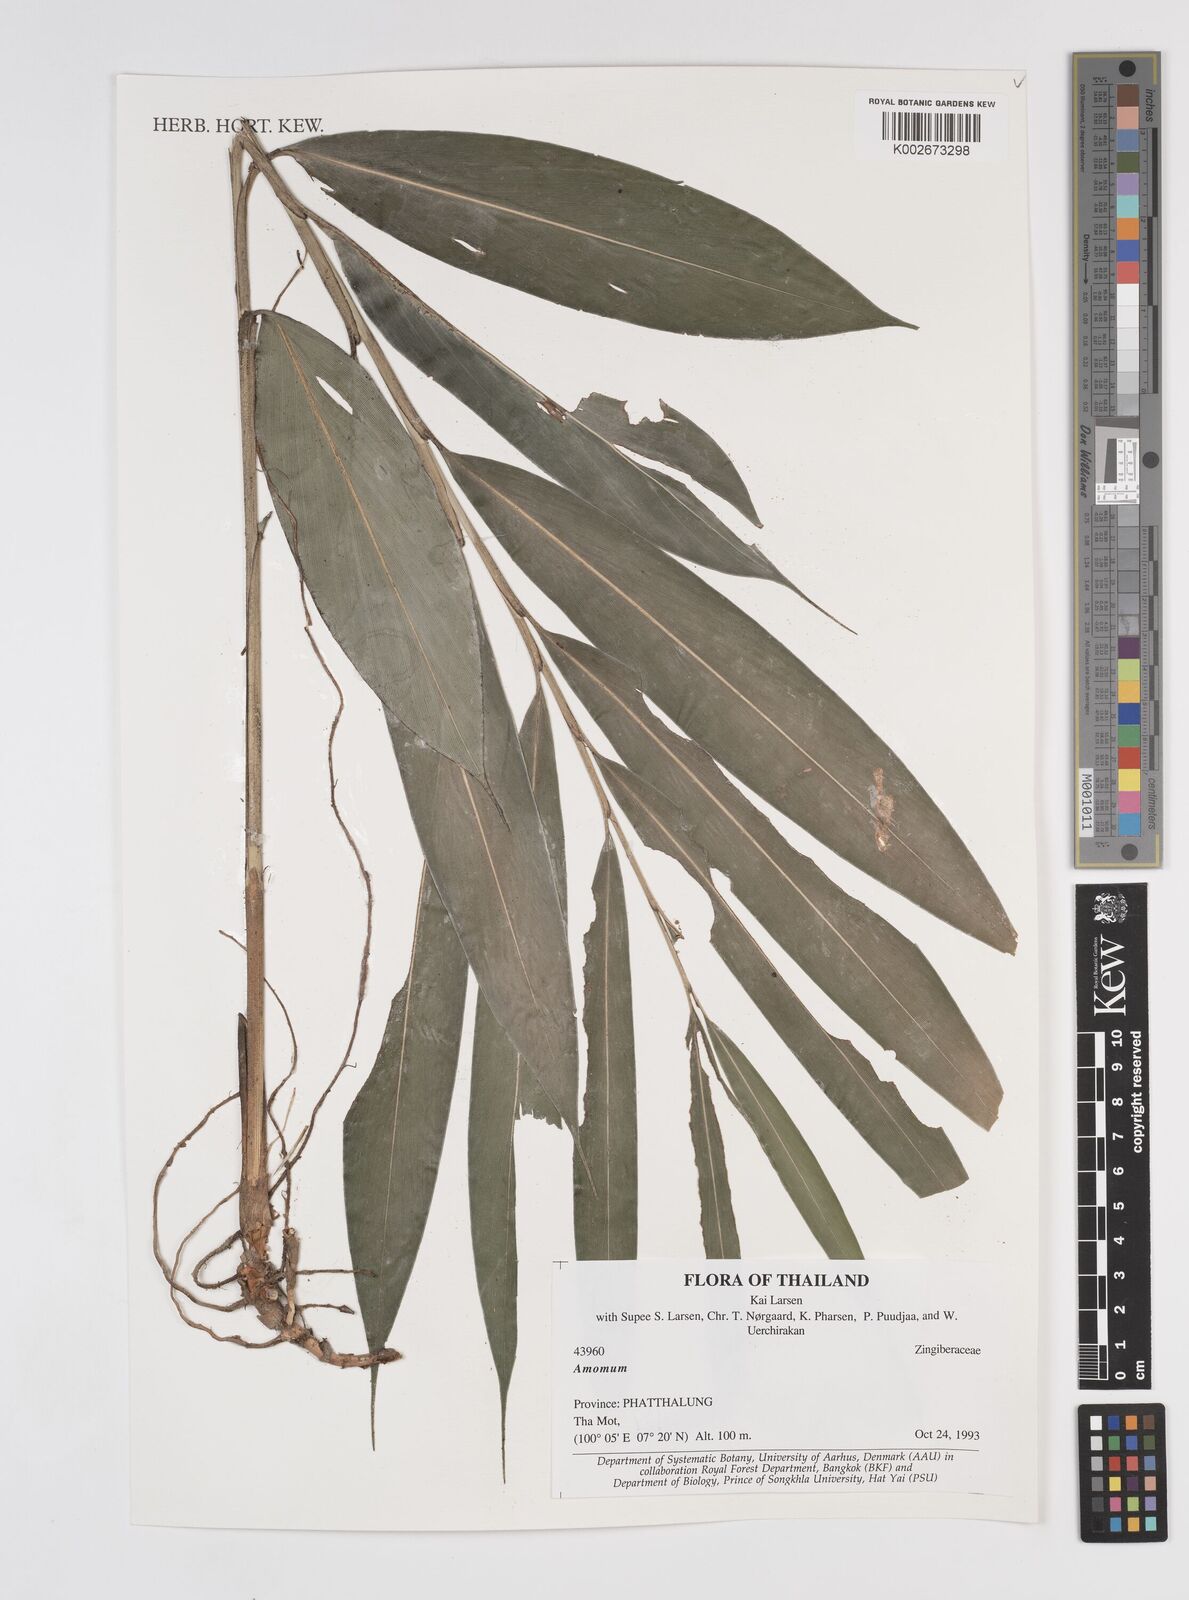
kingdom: Plantae
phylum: Tracheophyta
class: Liliopsida
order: Zingiberales
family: Zingiberaceae
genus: Amomum
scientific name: Amomum
